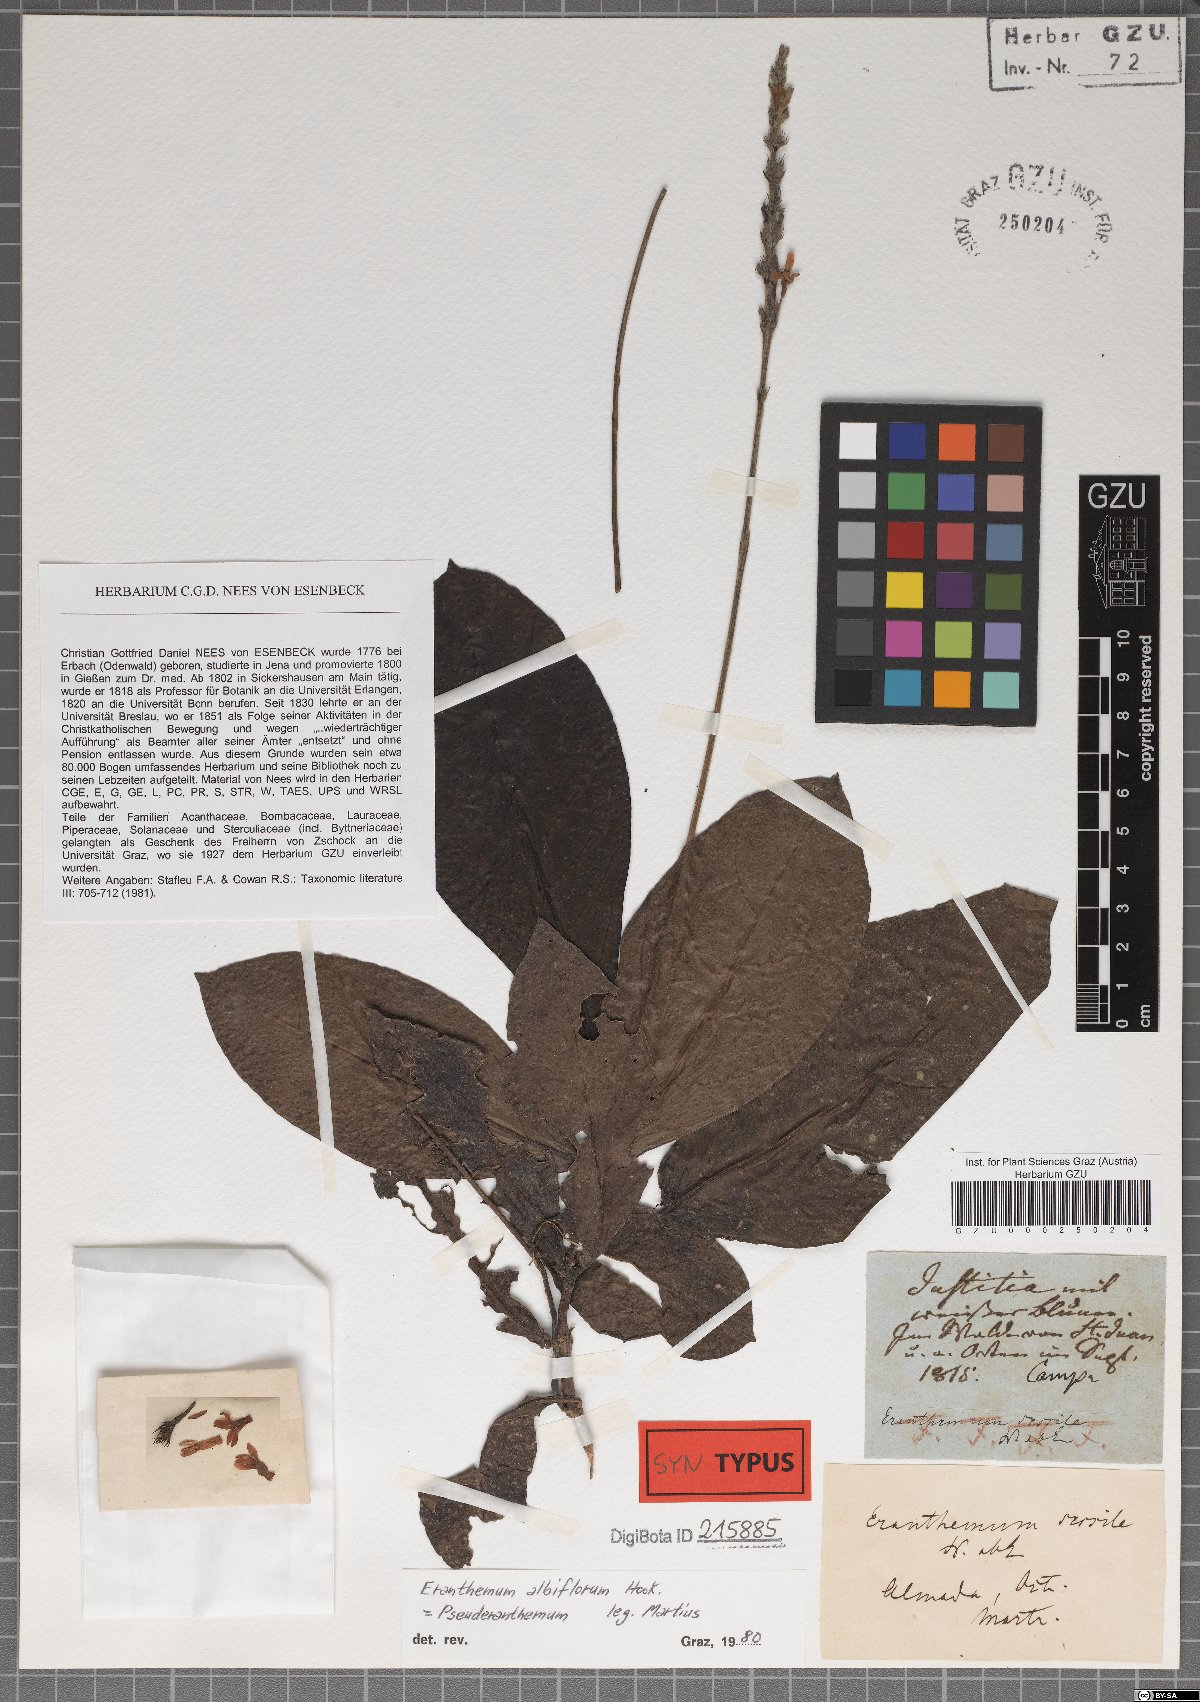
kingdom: Plantae
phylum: Tracheophyta
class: Magnoliopsida
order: Lamiales
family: Acanthaceae
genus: Eranthemum
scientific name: Eranthemum roseum
